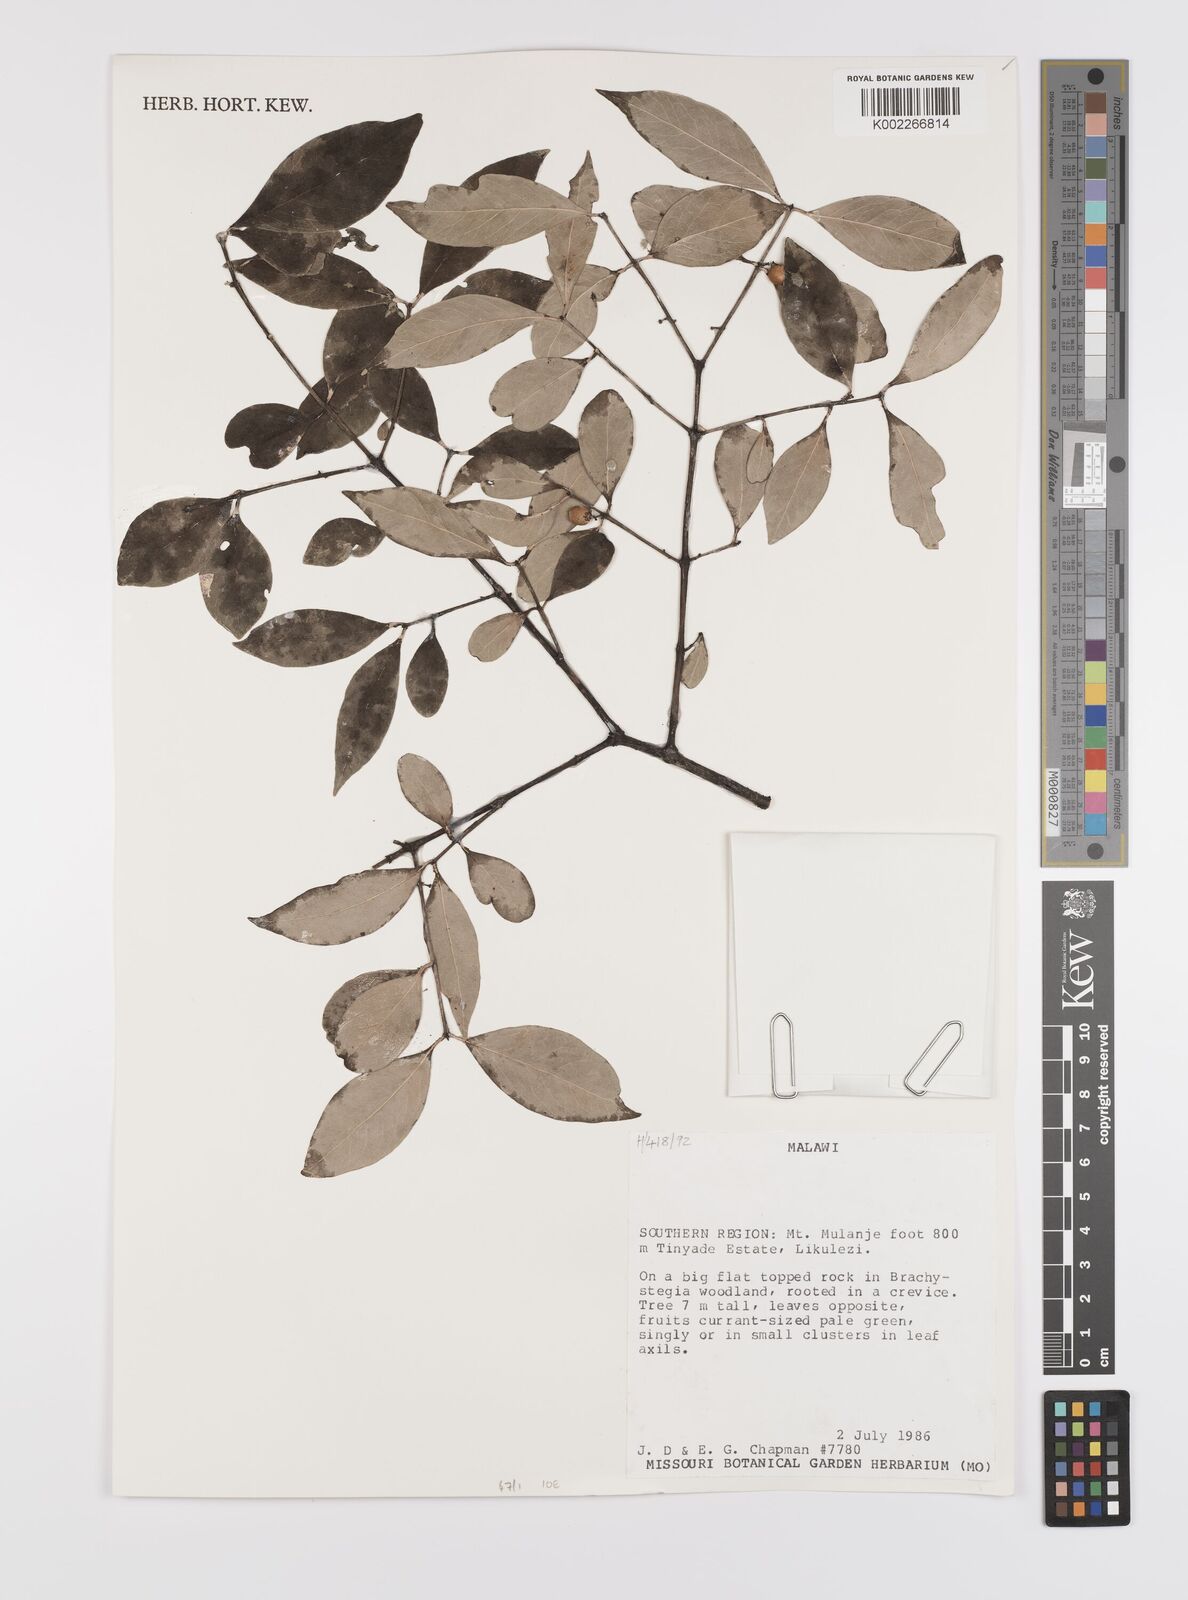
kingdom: Plantae
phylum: Tracheophyta
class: Magnoliopsida
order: Celastrales
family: Celastraceae
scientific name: Celastraceae
